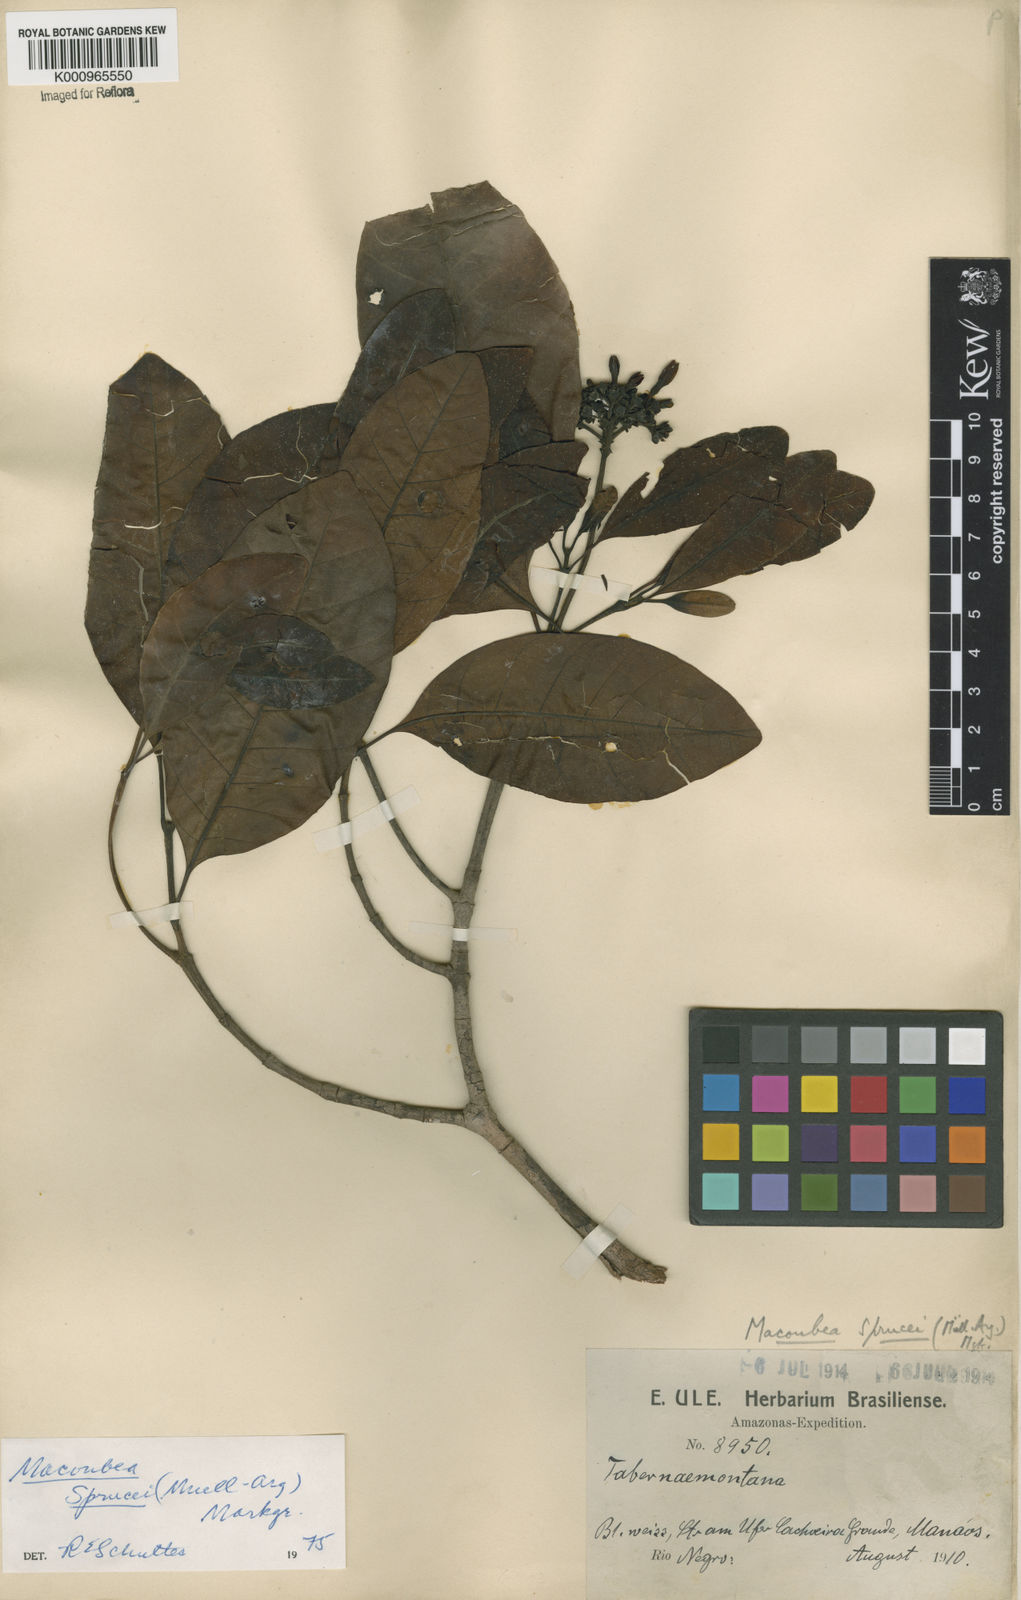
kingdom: Plantae
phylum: Tracheophyta
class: Magnoliopsida
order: Gentianales
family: Apocynaceae
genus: Macoubea
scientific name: Macoubea
